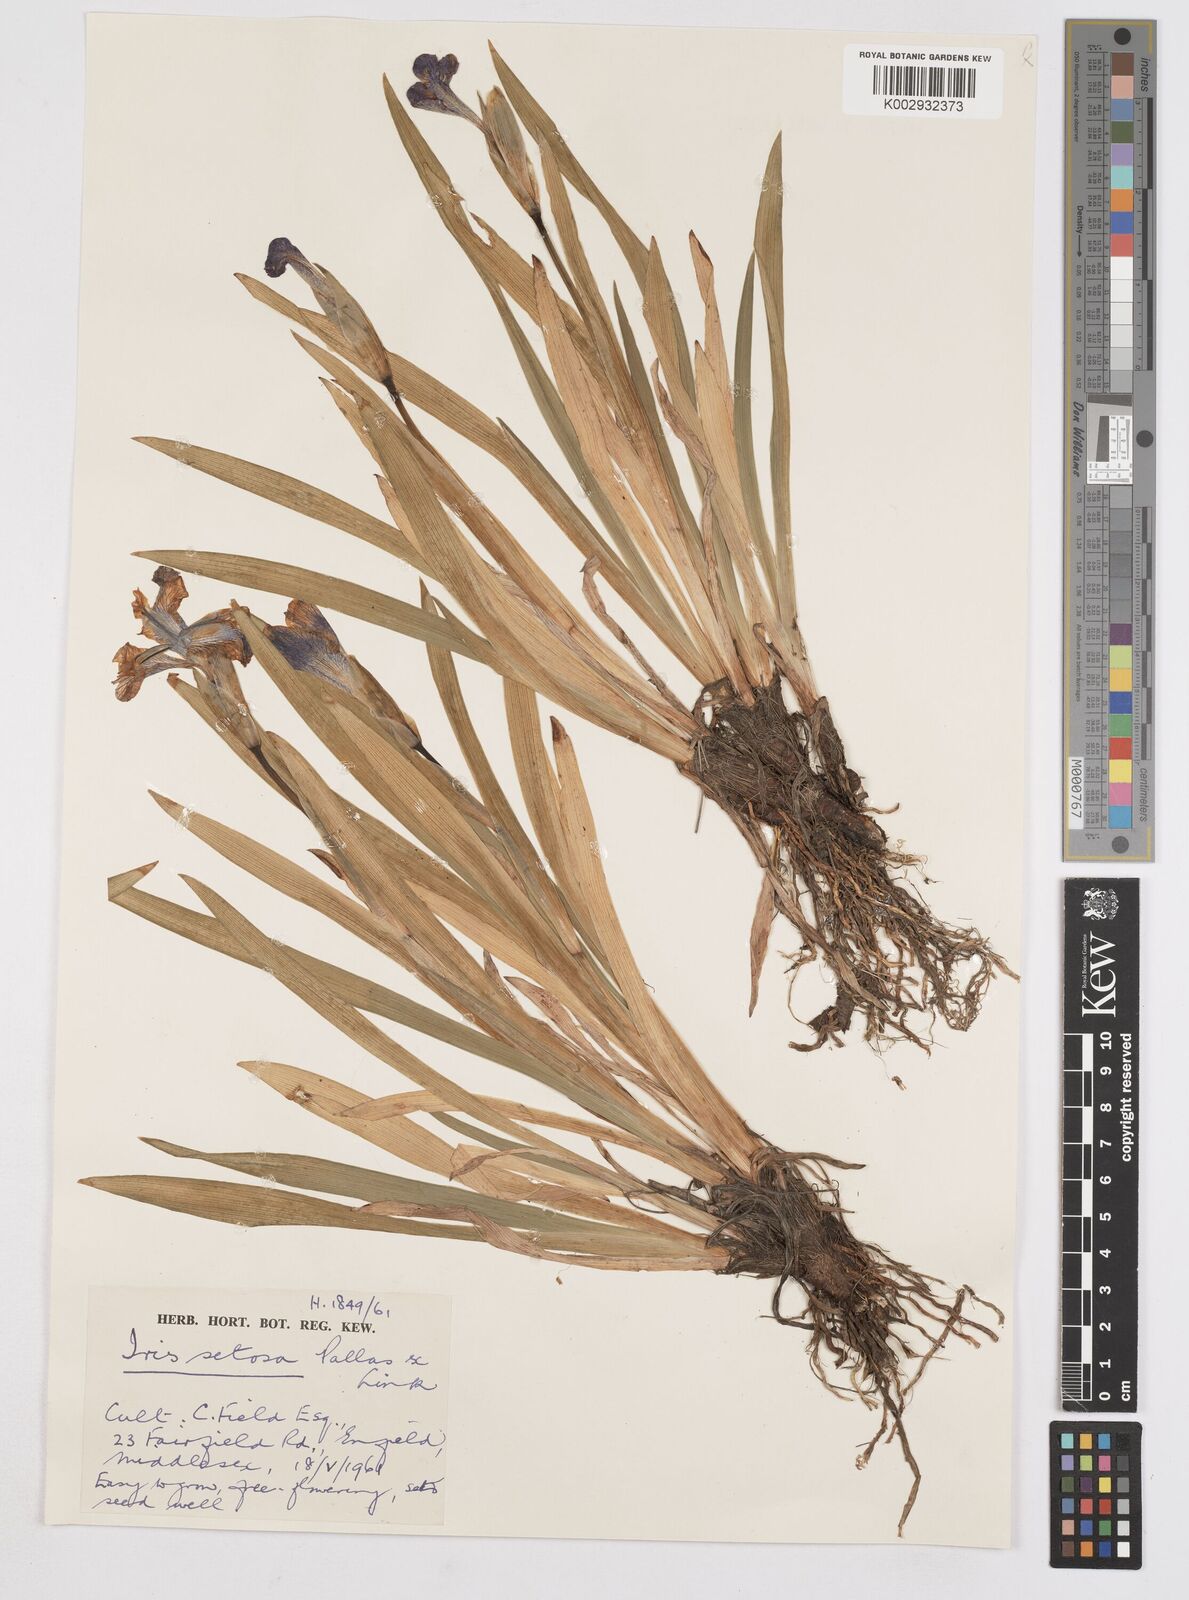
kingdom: Plantae
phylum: Tracheophyta
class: Liliopsida
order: Asparagales
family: Iridaceae
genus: Iris
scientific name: Iris setosa
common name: Arctic blue flag
